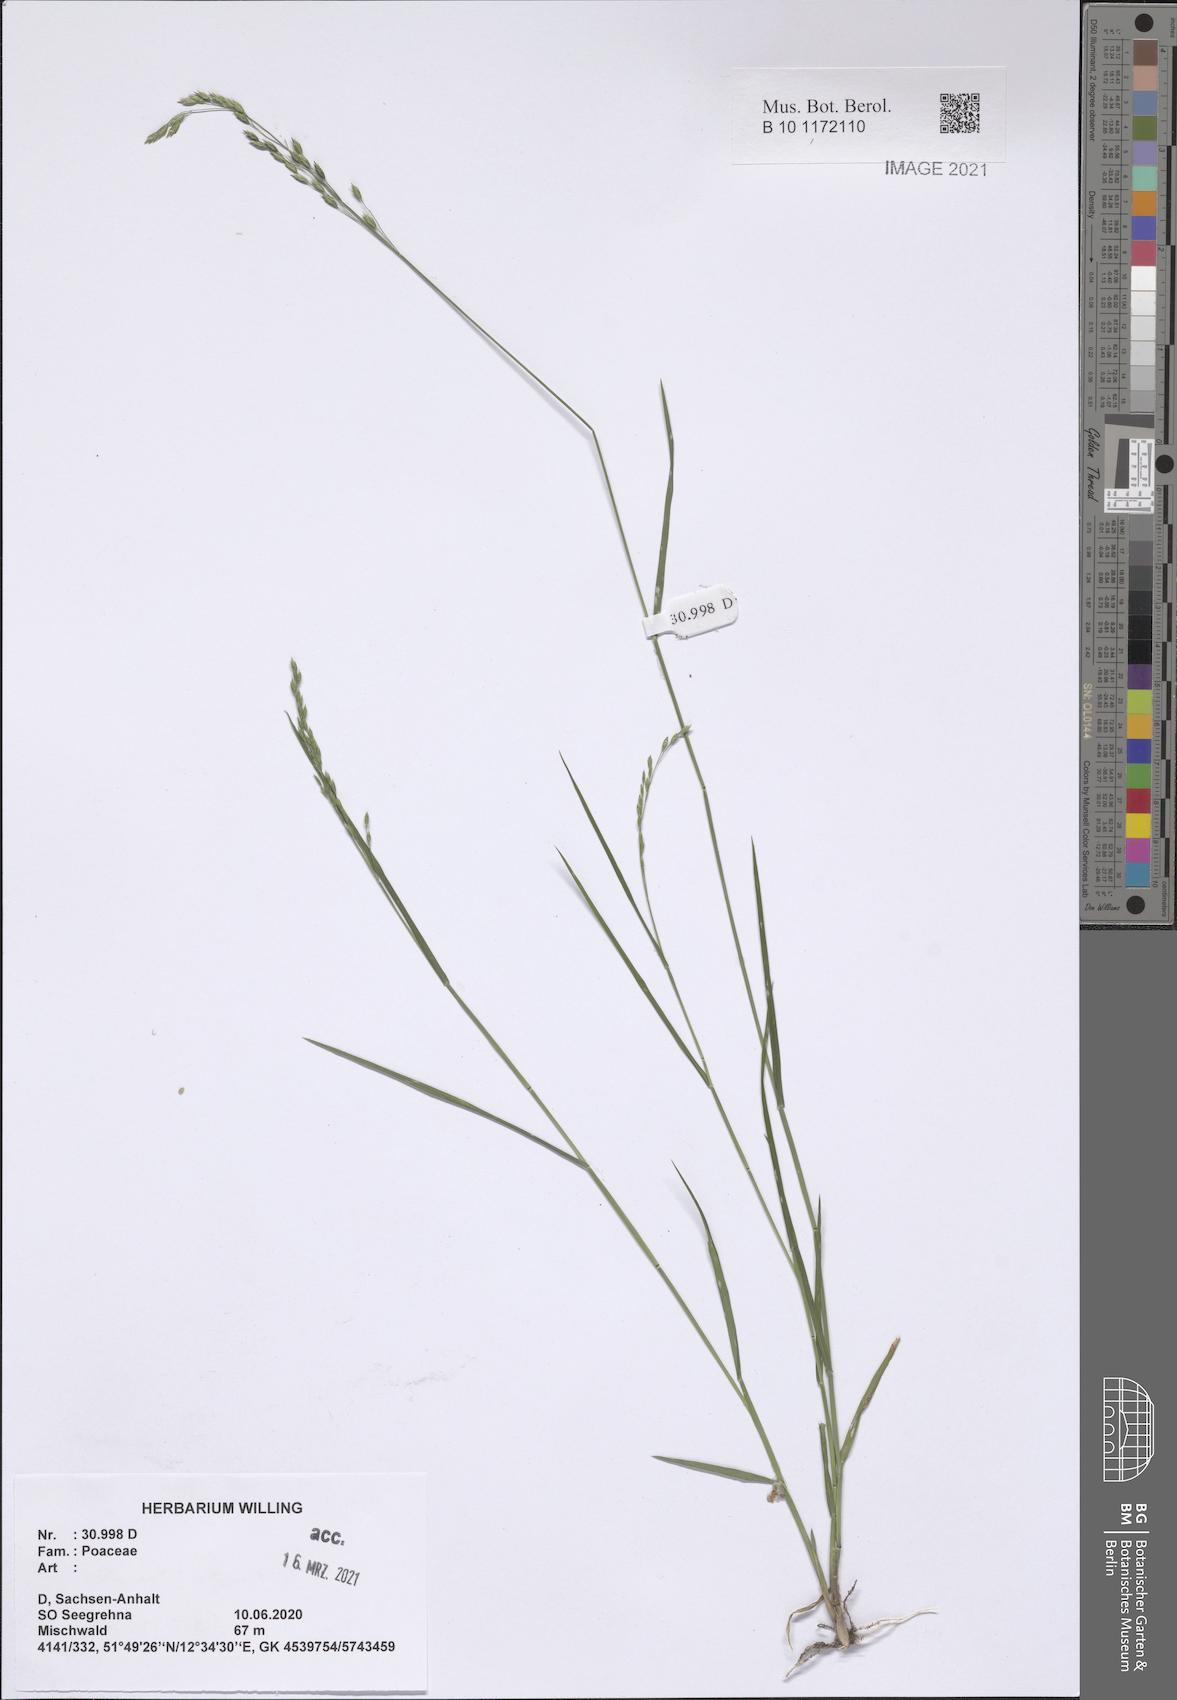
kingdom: Plantae
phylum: Tracheophyta
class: Liliopsida
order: Poales
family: Poaceae
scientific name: Poaceae
